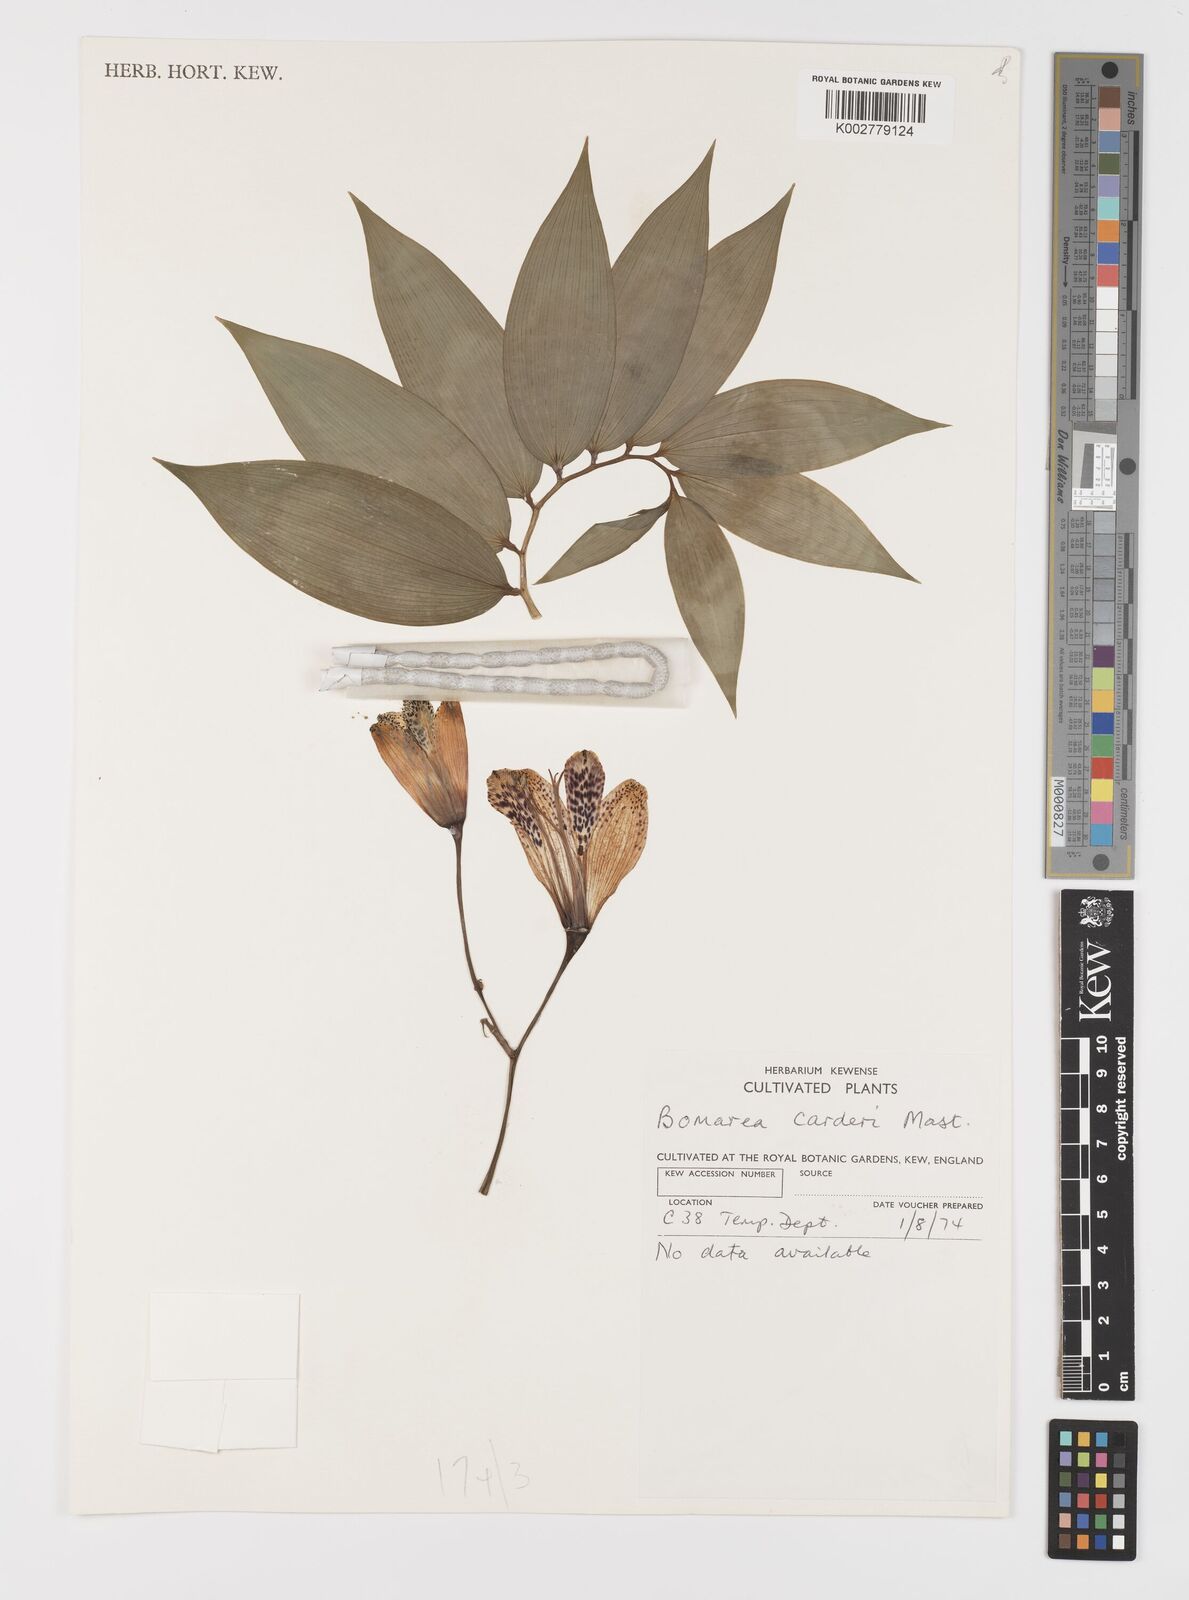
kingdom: Plantae
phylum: Tracheophyta
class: Liliopsida
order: Liliales
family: Alstroemeriaceae
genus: Bomarea
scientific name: Bomarea carderi
